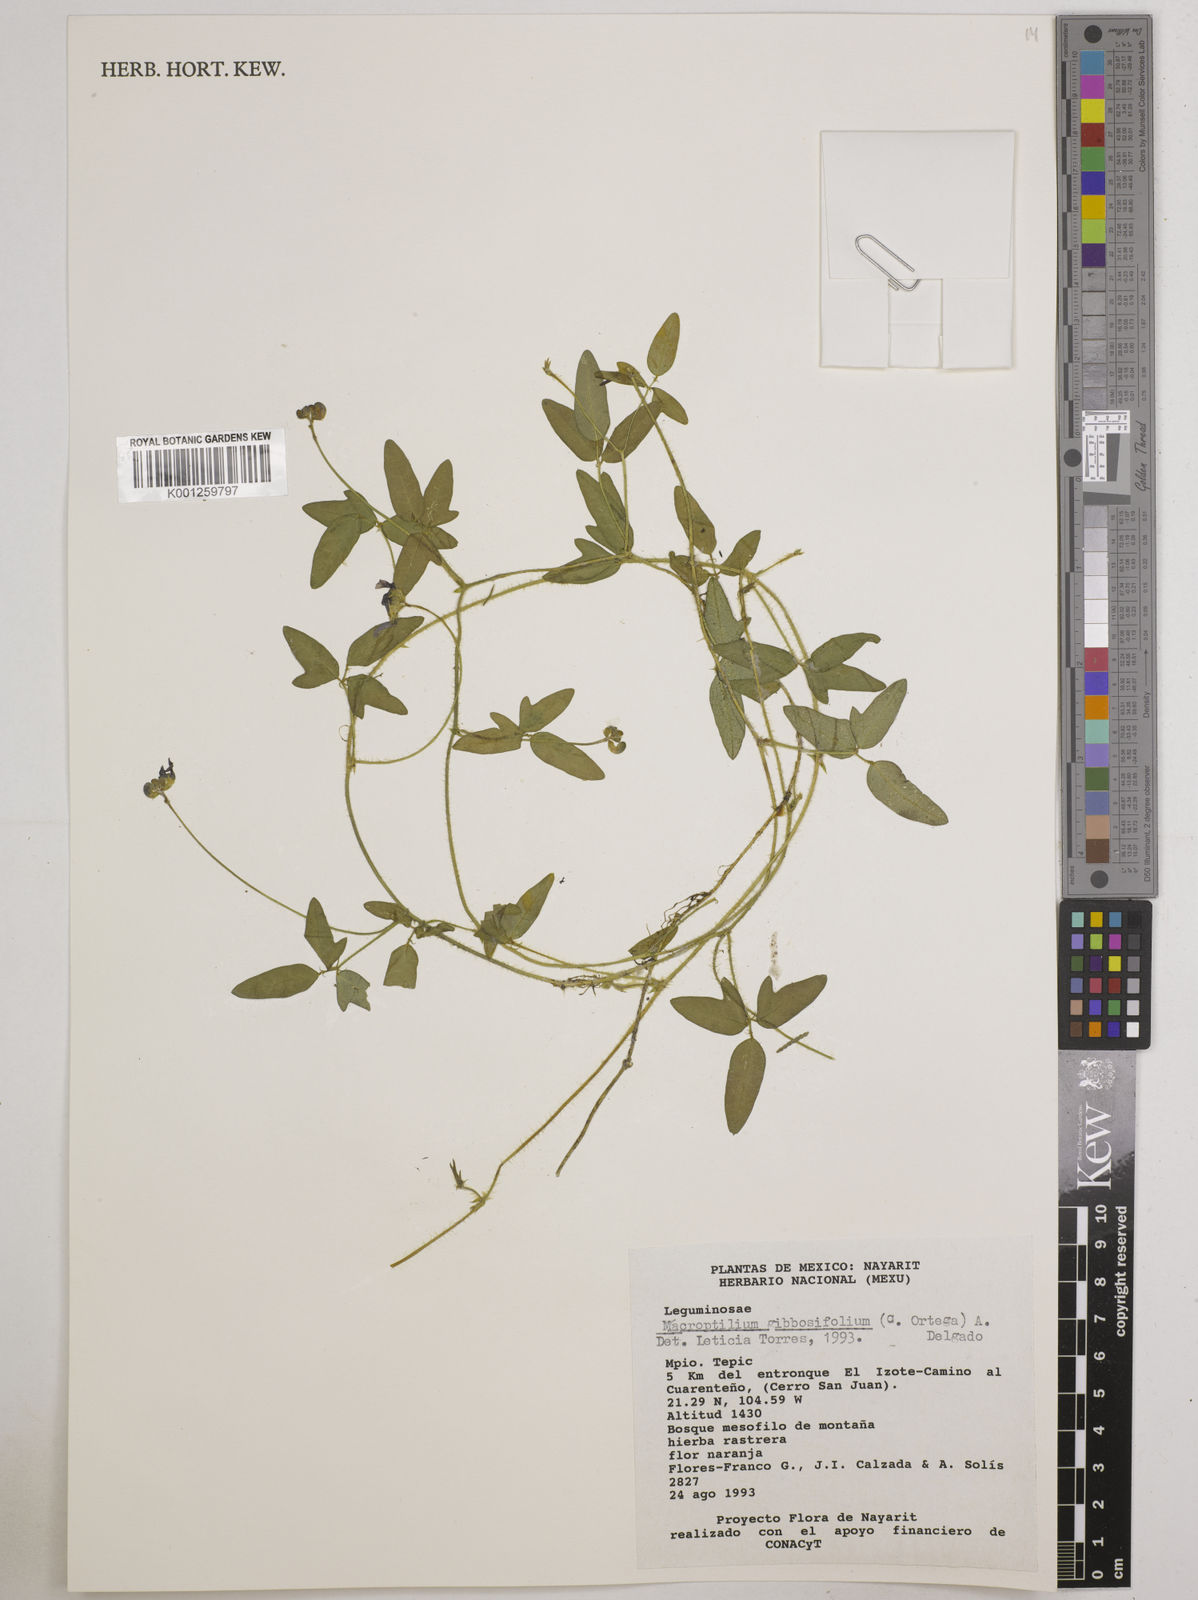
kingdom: Plantae
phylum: Tracheophyta
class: Magnoliopsida
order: Fabales
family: Fabaceae
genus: Macroptilium
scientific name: Macroptilium gibbosifolium
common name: Variableleaf bushbean
